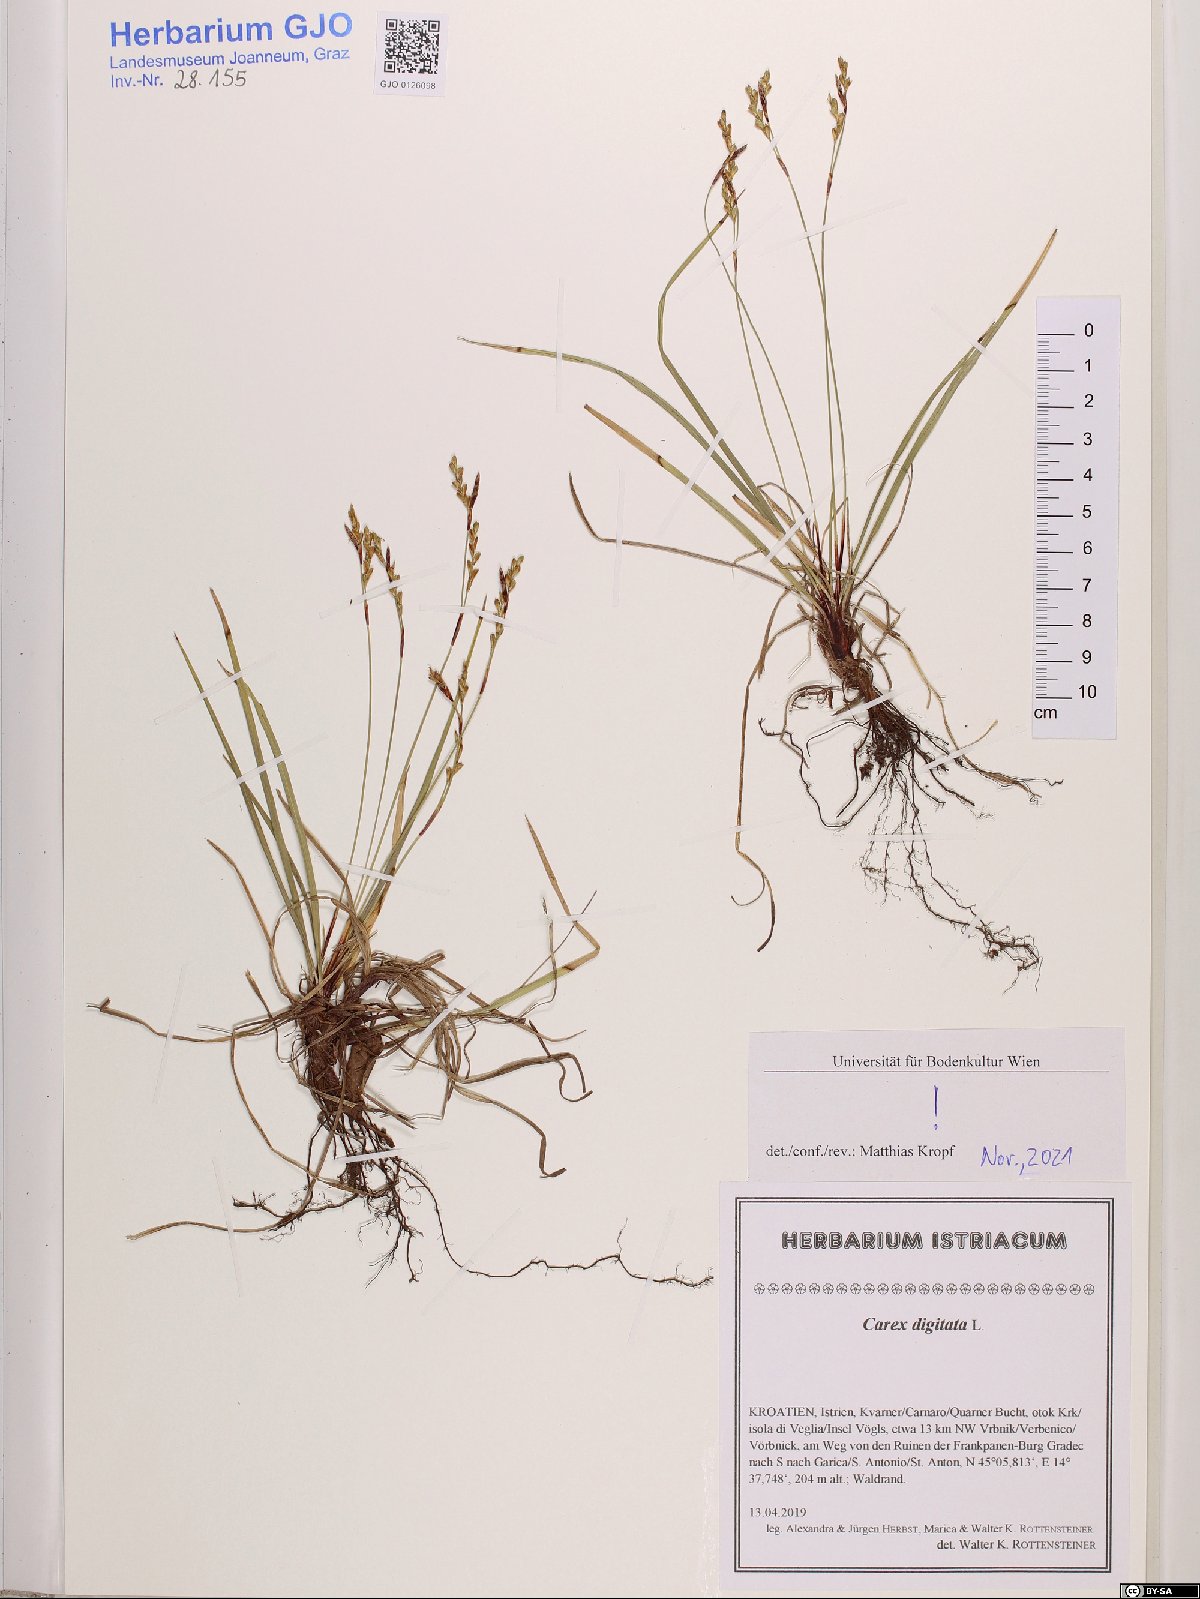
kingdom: Plantae
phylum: Tracheophyta
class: Liliopsida
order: Poales
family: Cyperaceae
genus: Carex
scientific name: Carex digitata
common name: Fingered sedge
